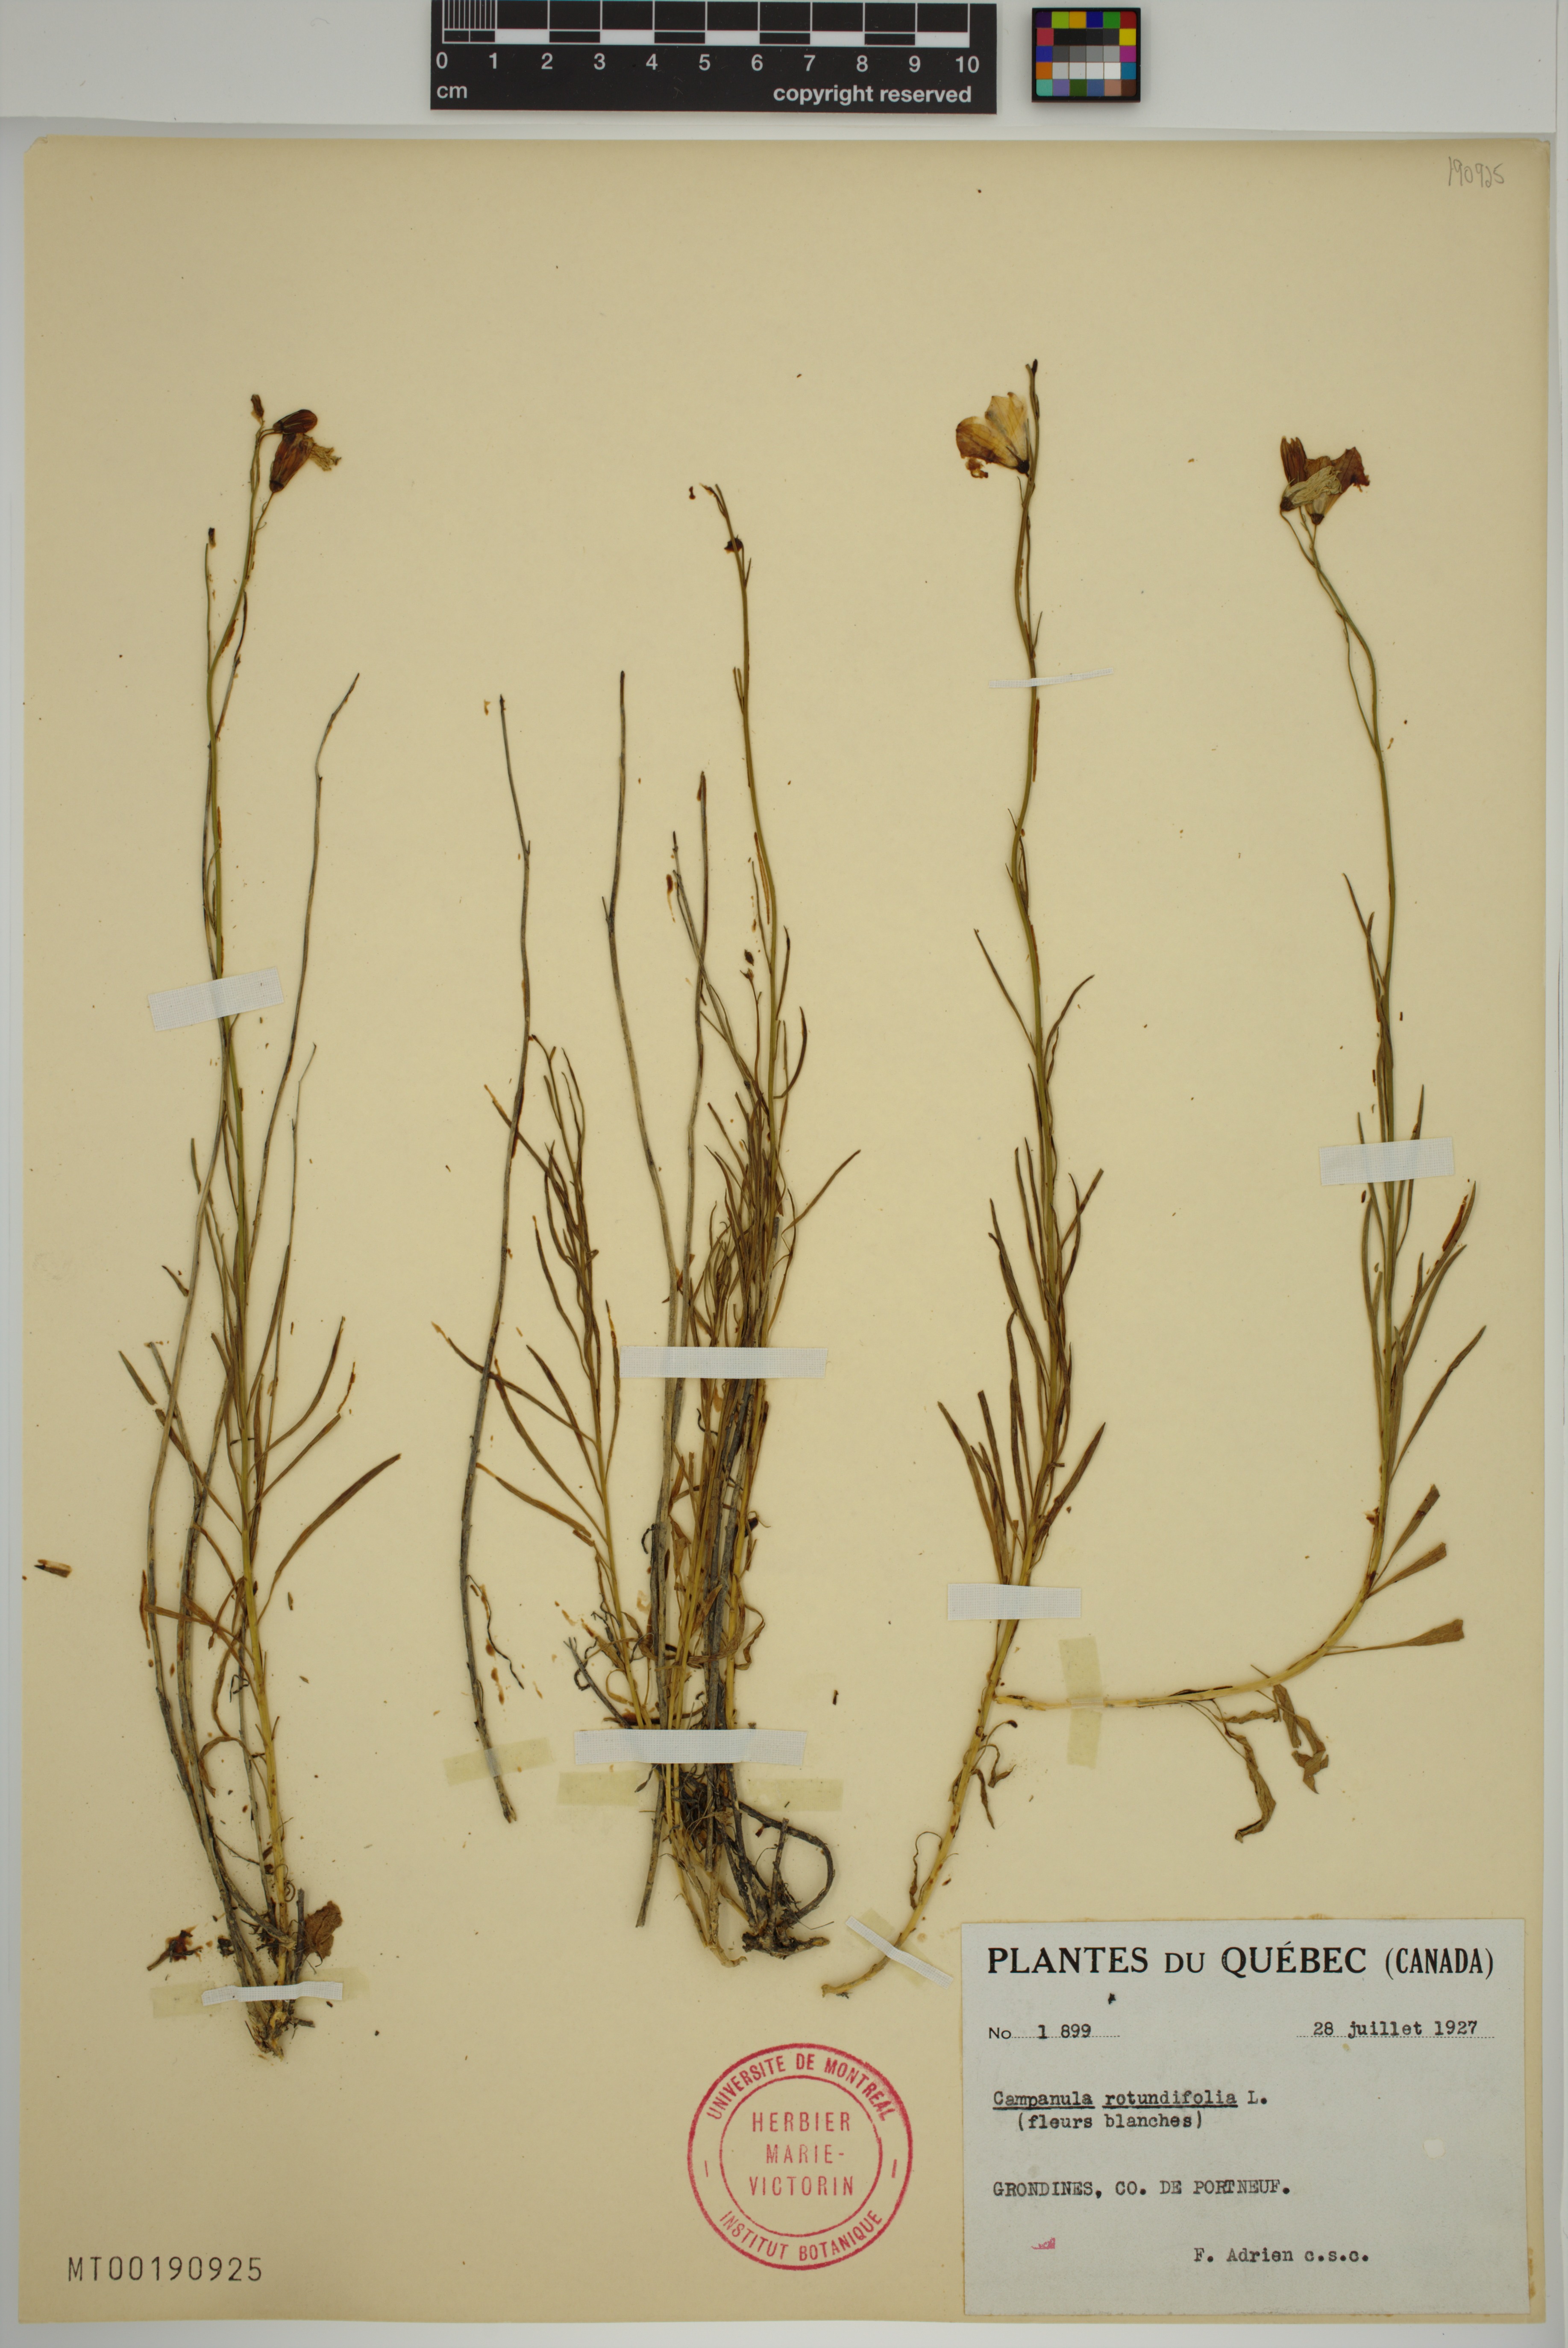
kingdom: Plantae
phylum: Tracheophyta
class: Magnoliopsida
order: Asterales
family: Campanulaceae
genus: Campanula
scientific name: Campanula rotundifolia
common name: Harebell
